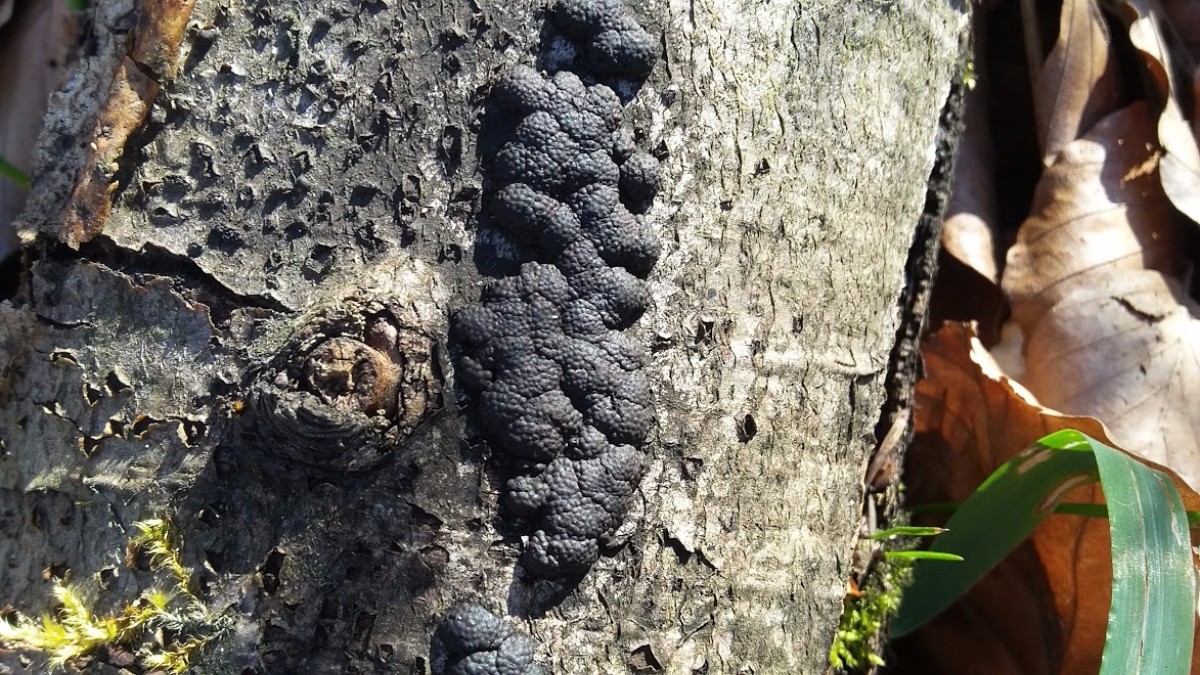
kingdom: Fungi
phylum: Ascomycota
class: Sordariomycetes
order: Xylariales
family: Hypoxylaceae
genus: Jackrogersella
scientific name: Jackrogersella cohaerens
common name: sammenflydende kulbær
